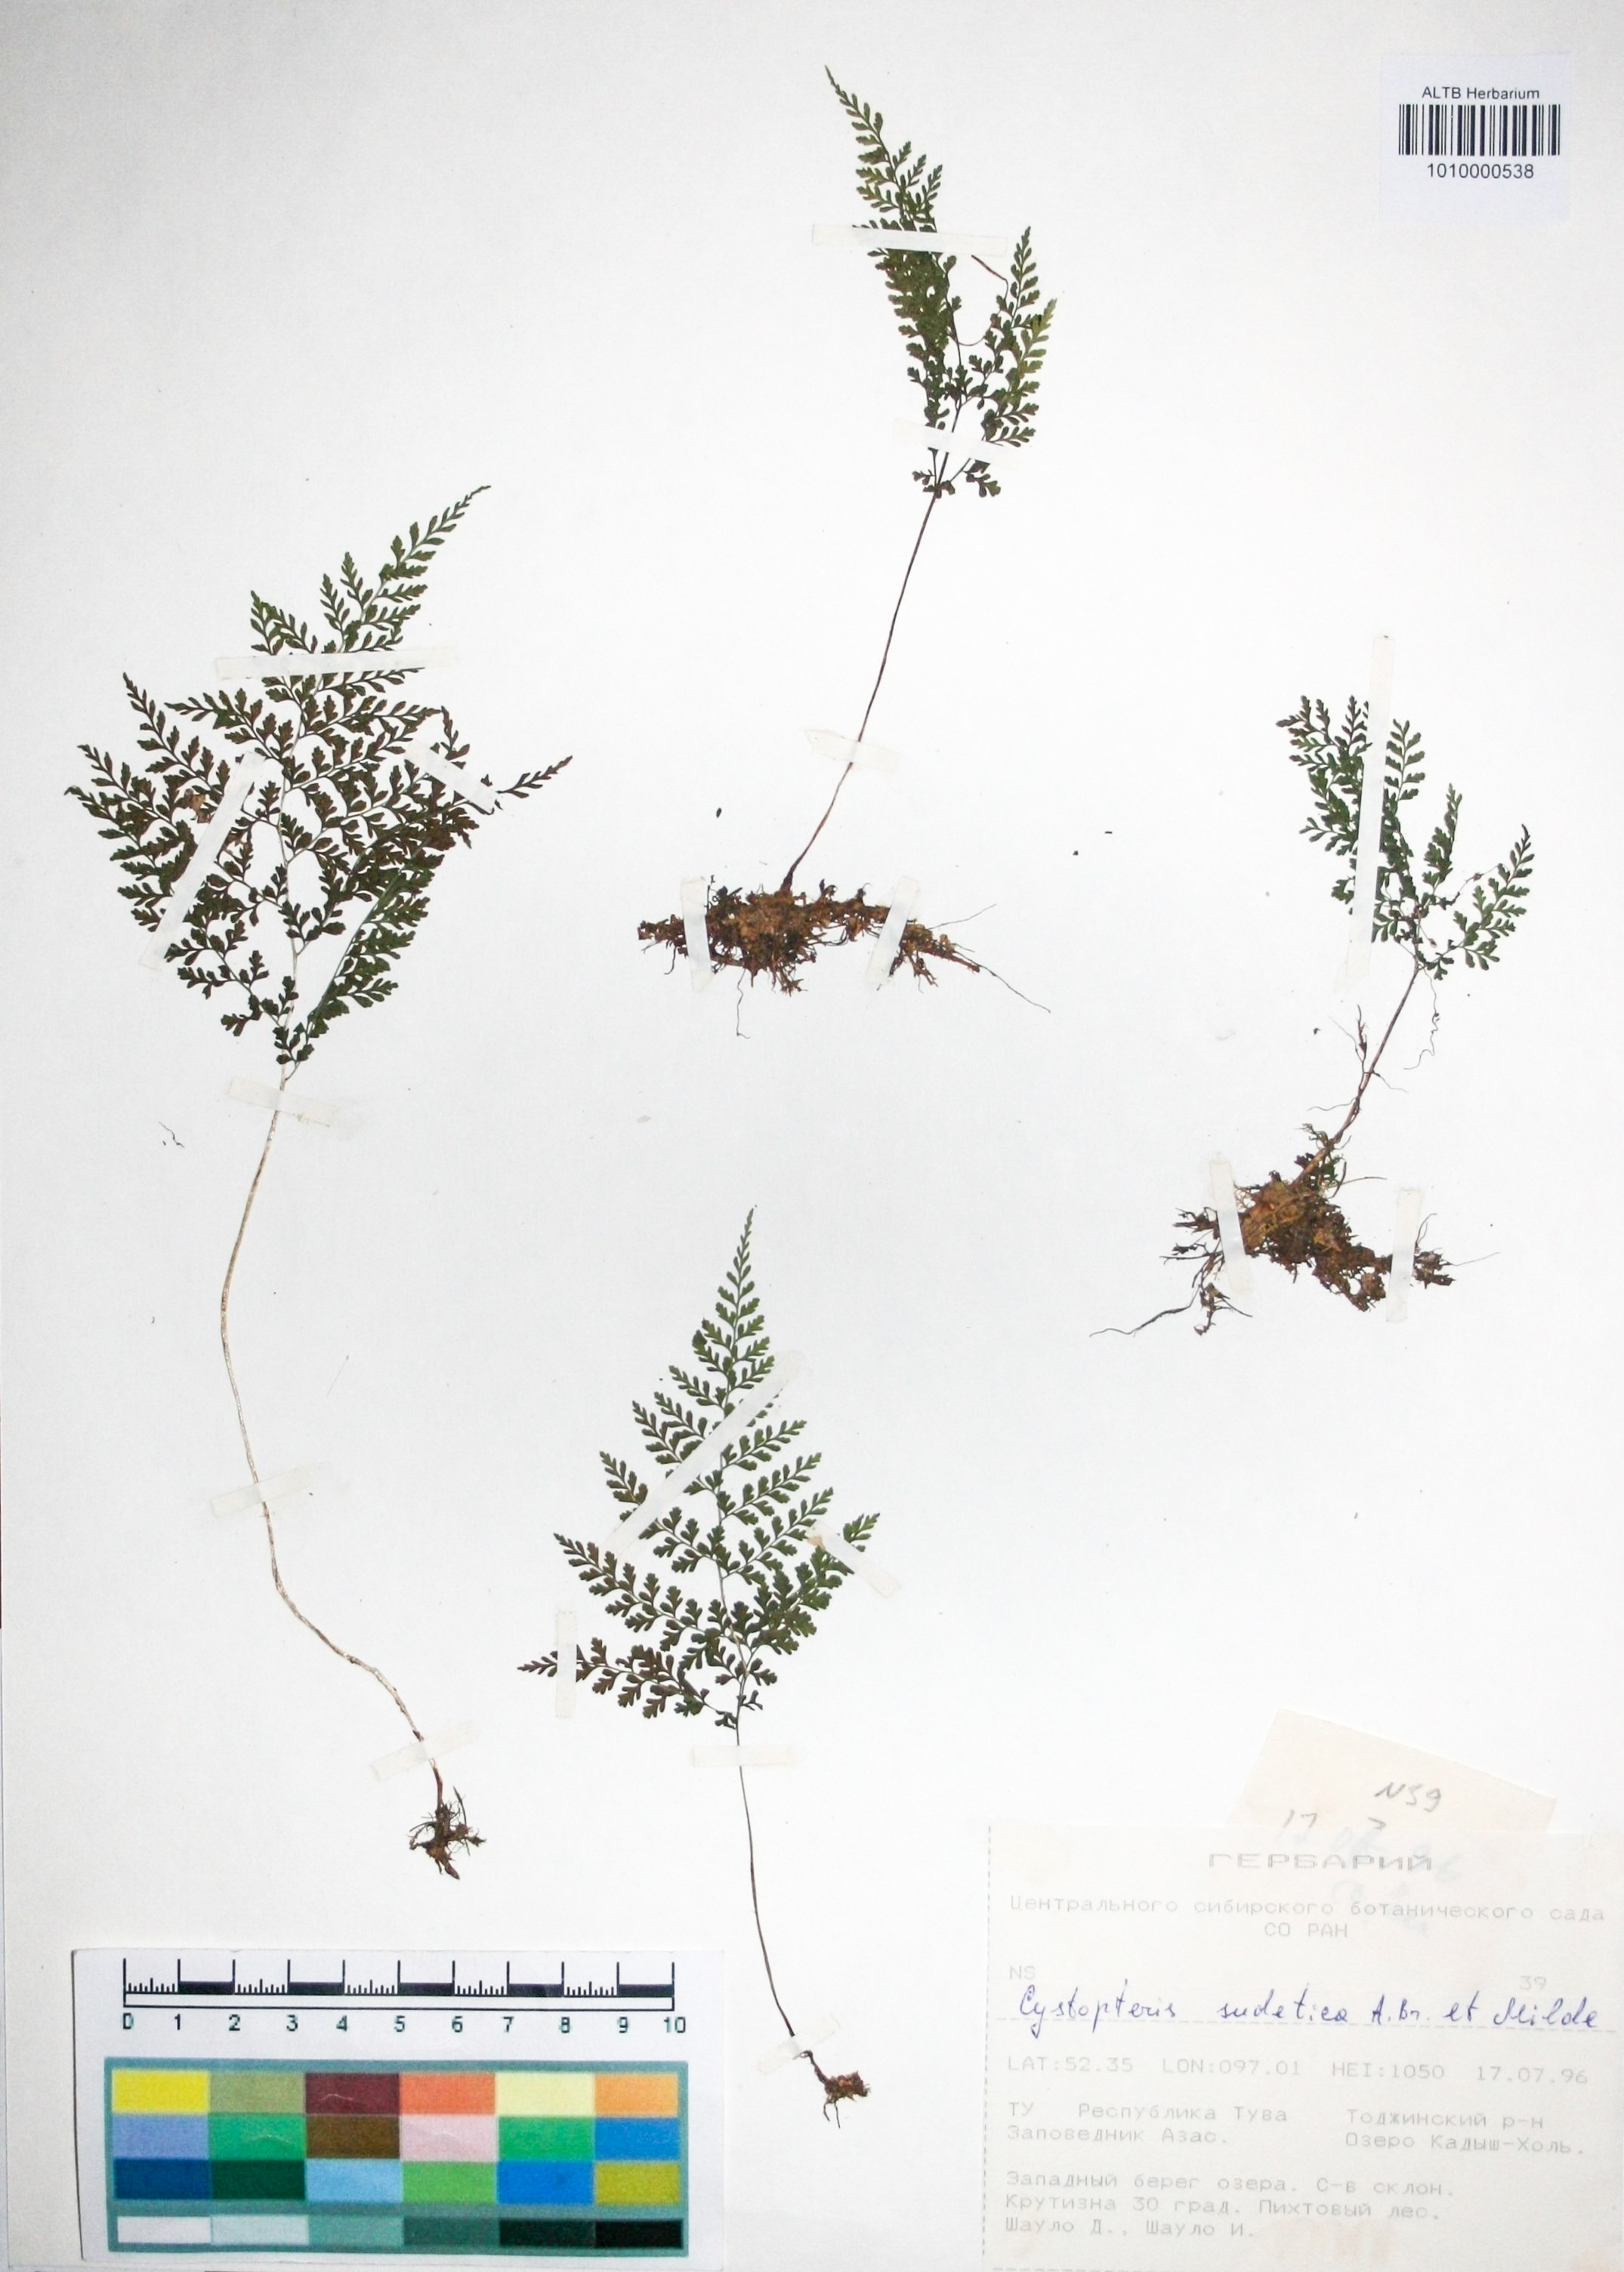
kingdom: Plantae
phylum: Tracheophyta
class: Polypodiopsida
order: Polypodiales
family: Cystopteridaceae
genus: Cystopteris
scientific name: Cystopteris sudetica
